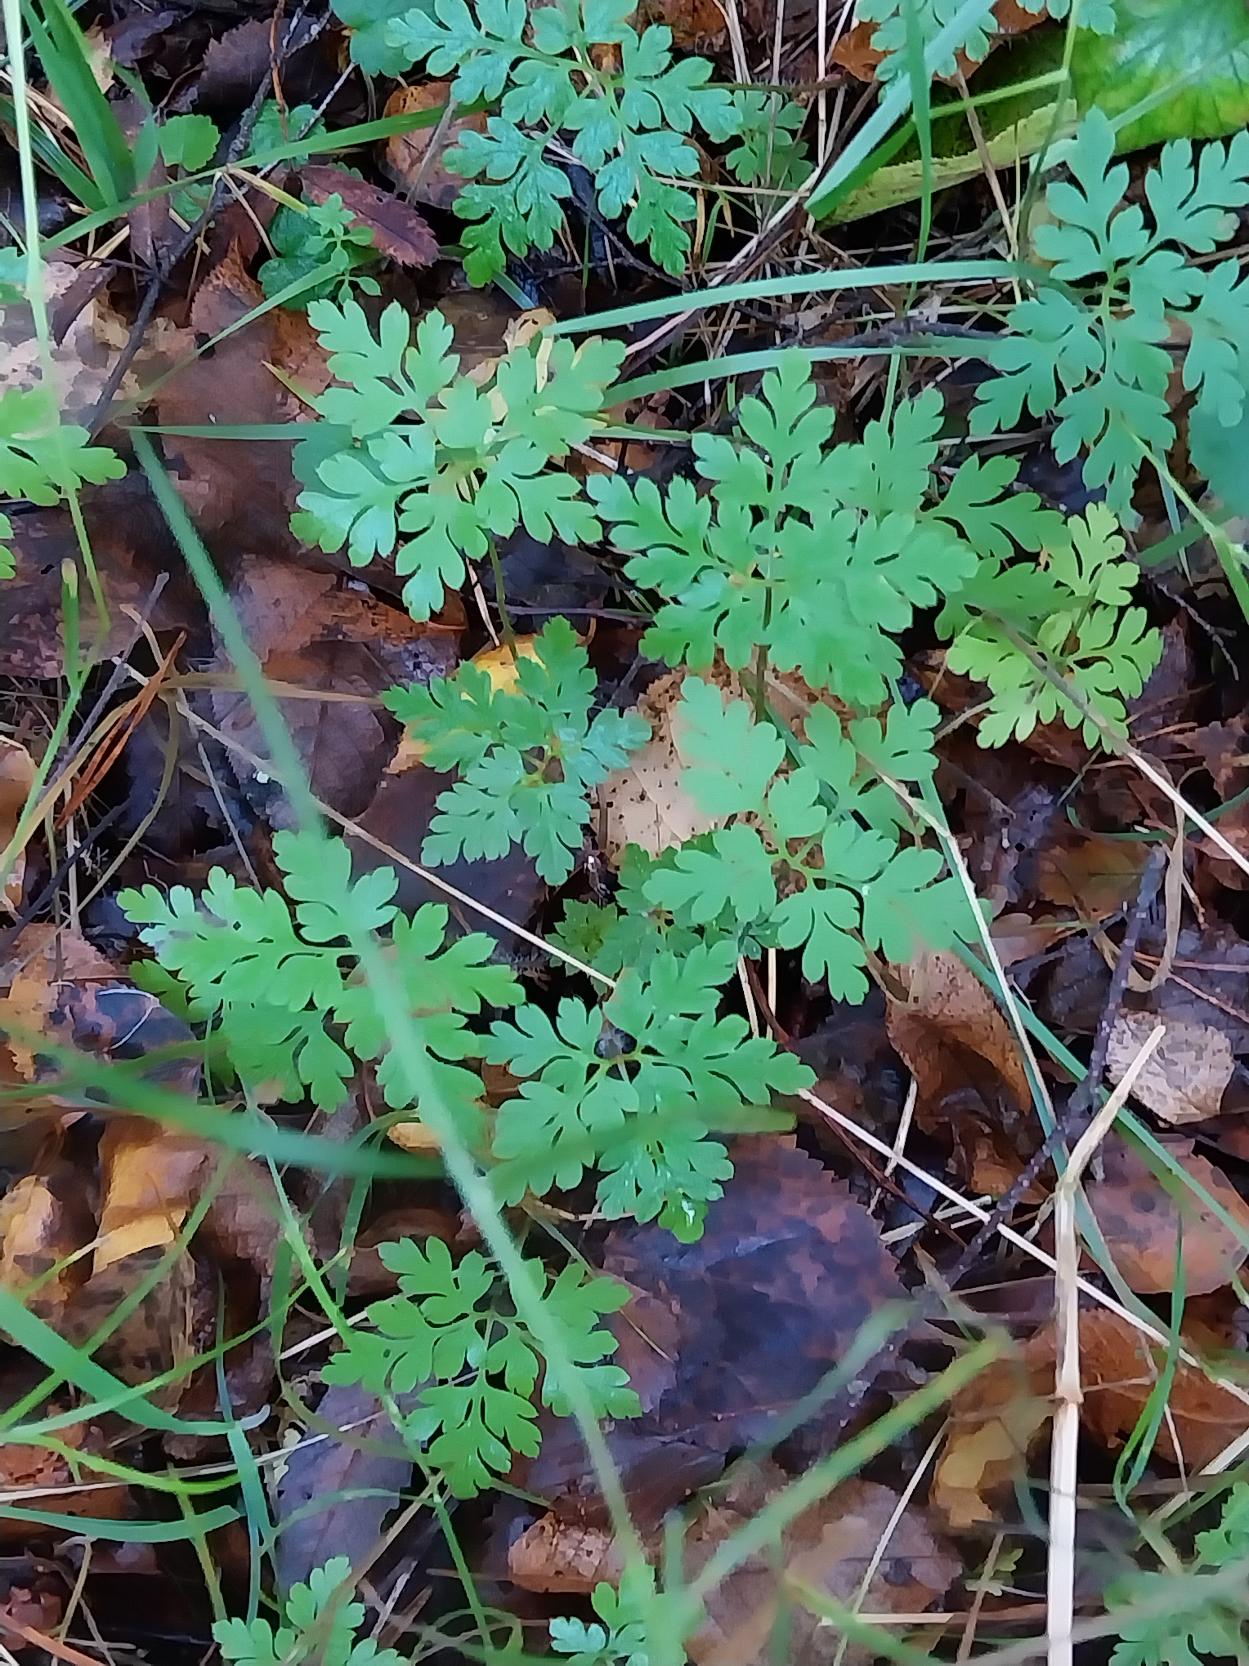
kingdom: Plantae
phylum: Tracheophyta
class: Magnoliopsida
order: Geraniales
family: Geraniaceae
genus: Geranium
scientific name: Geranium robertianum
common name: Stinkende storkenæb
